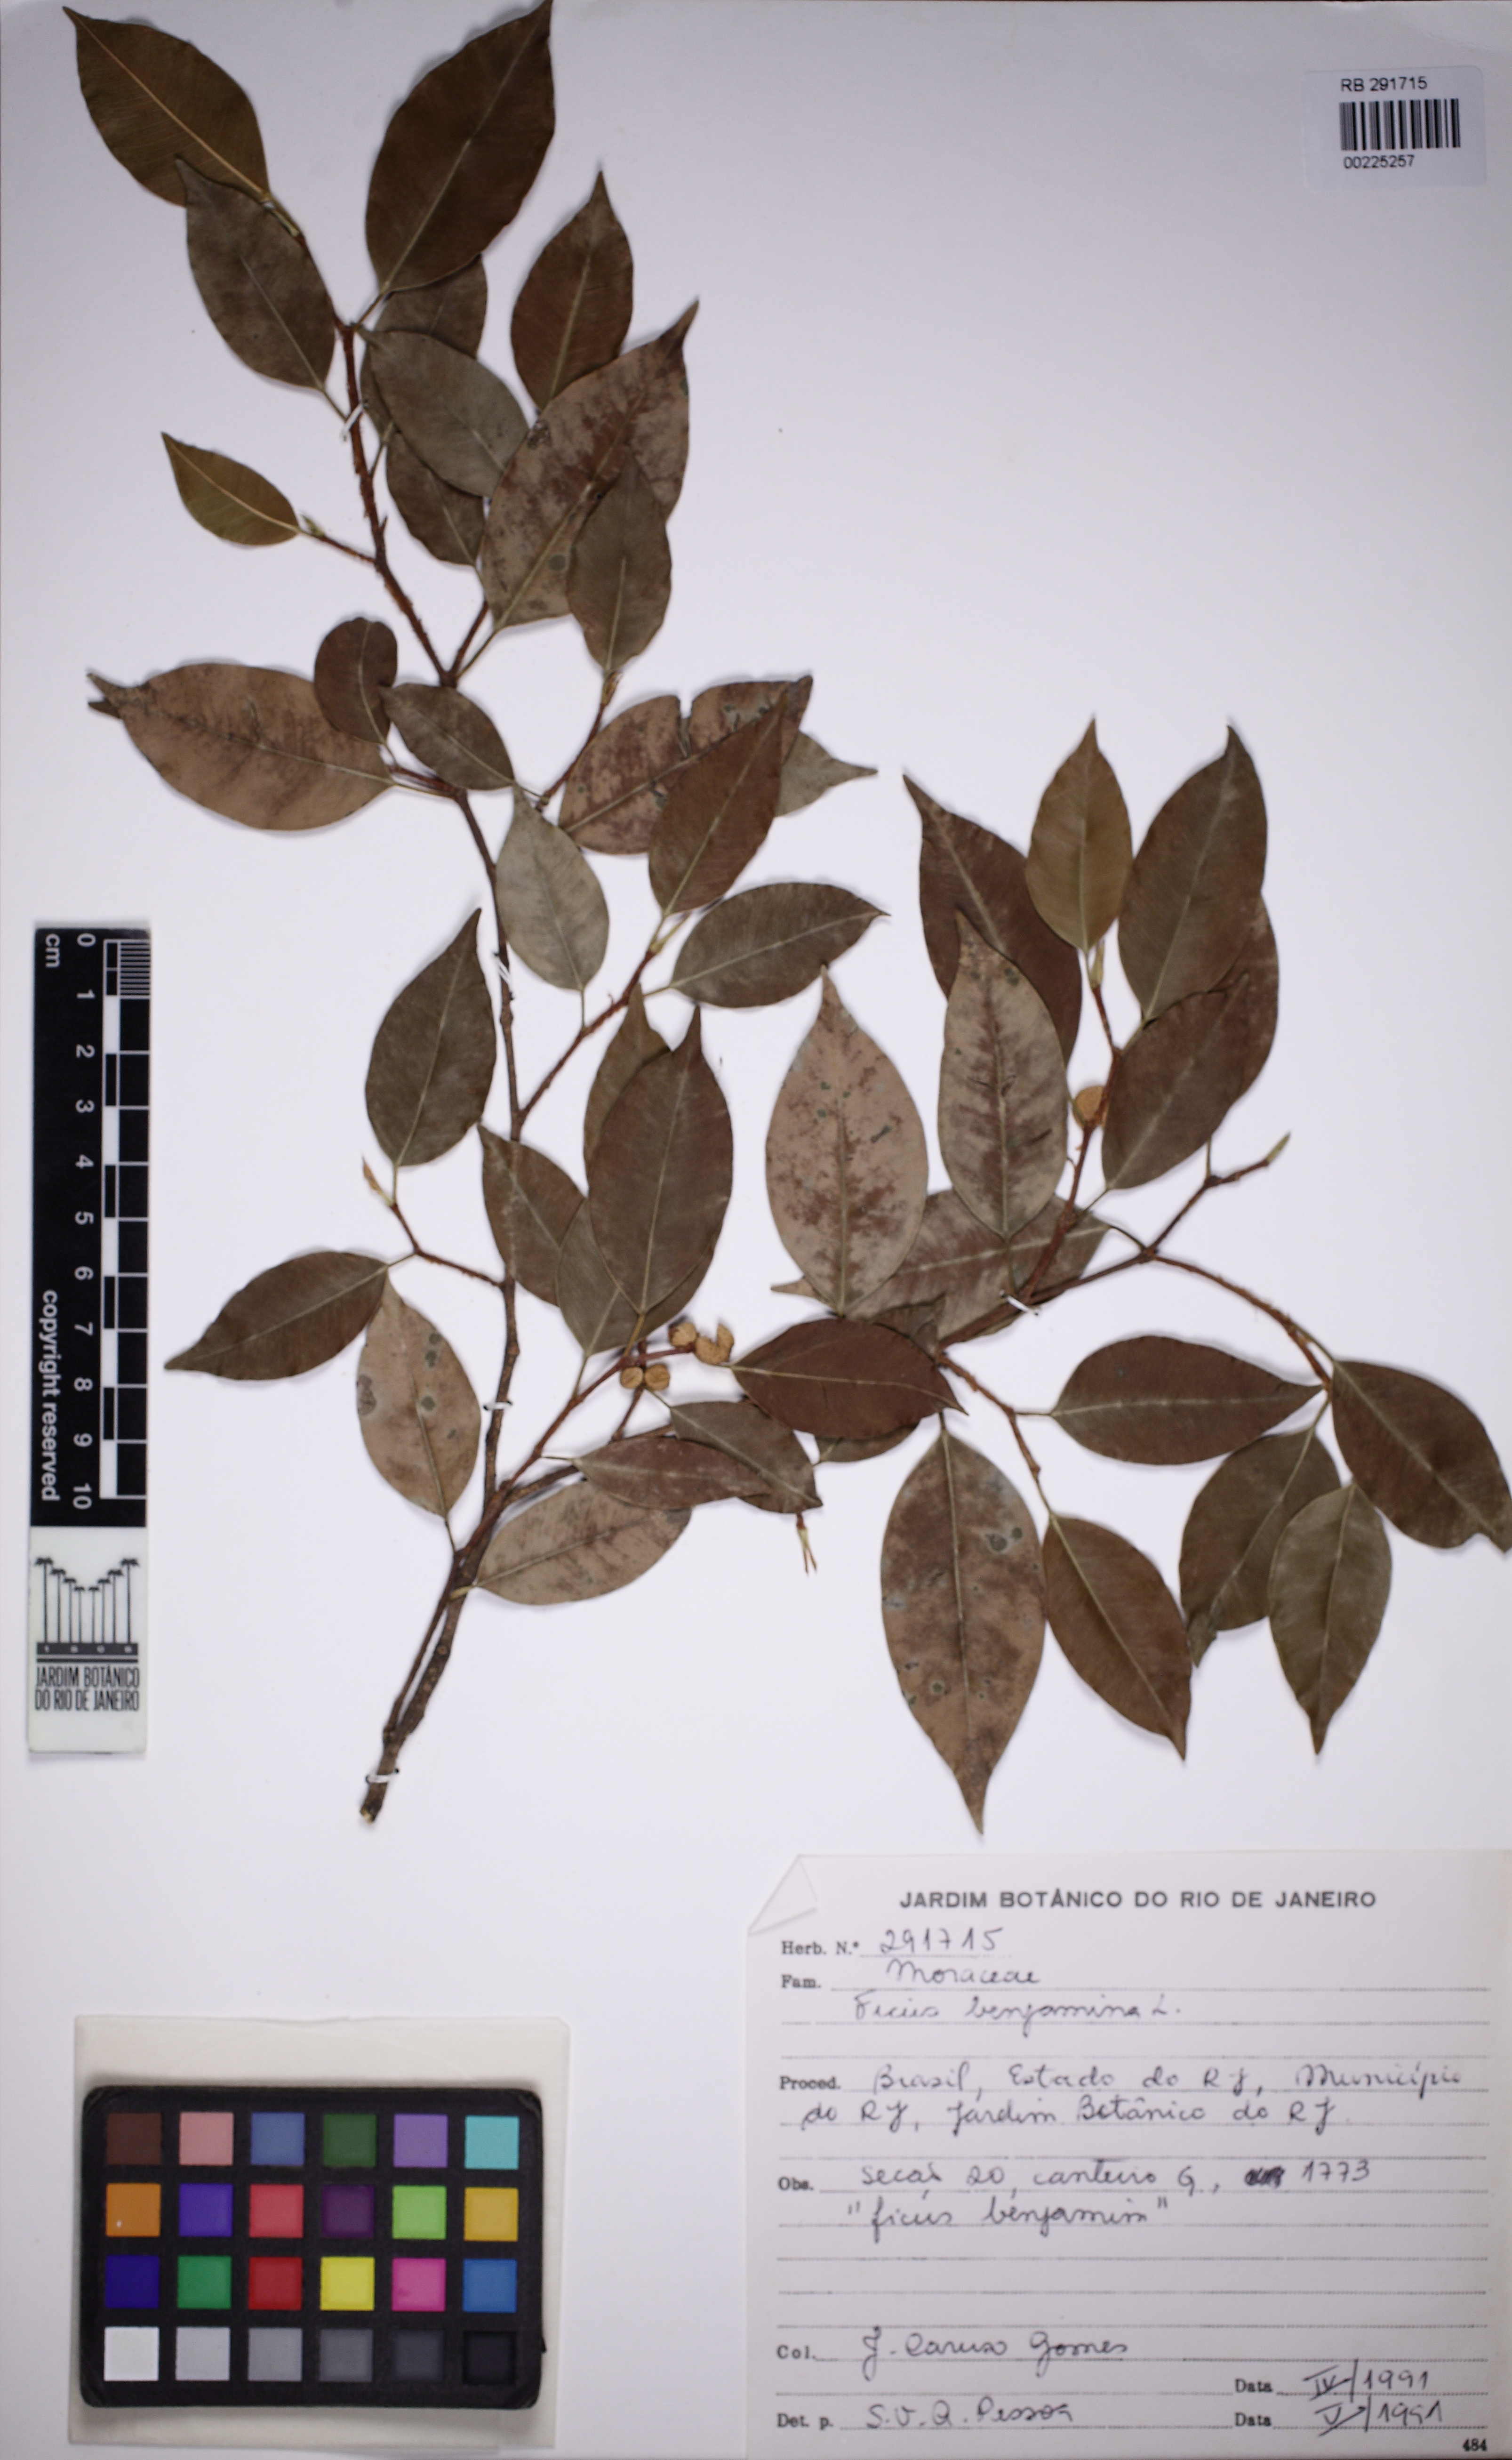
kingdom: Plantae
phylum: Tracheophyta
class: Magnoliopsida
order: Rosales
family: Moraceae
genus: Ficus
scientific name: Ficus benjamina
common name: Weeping fig
